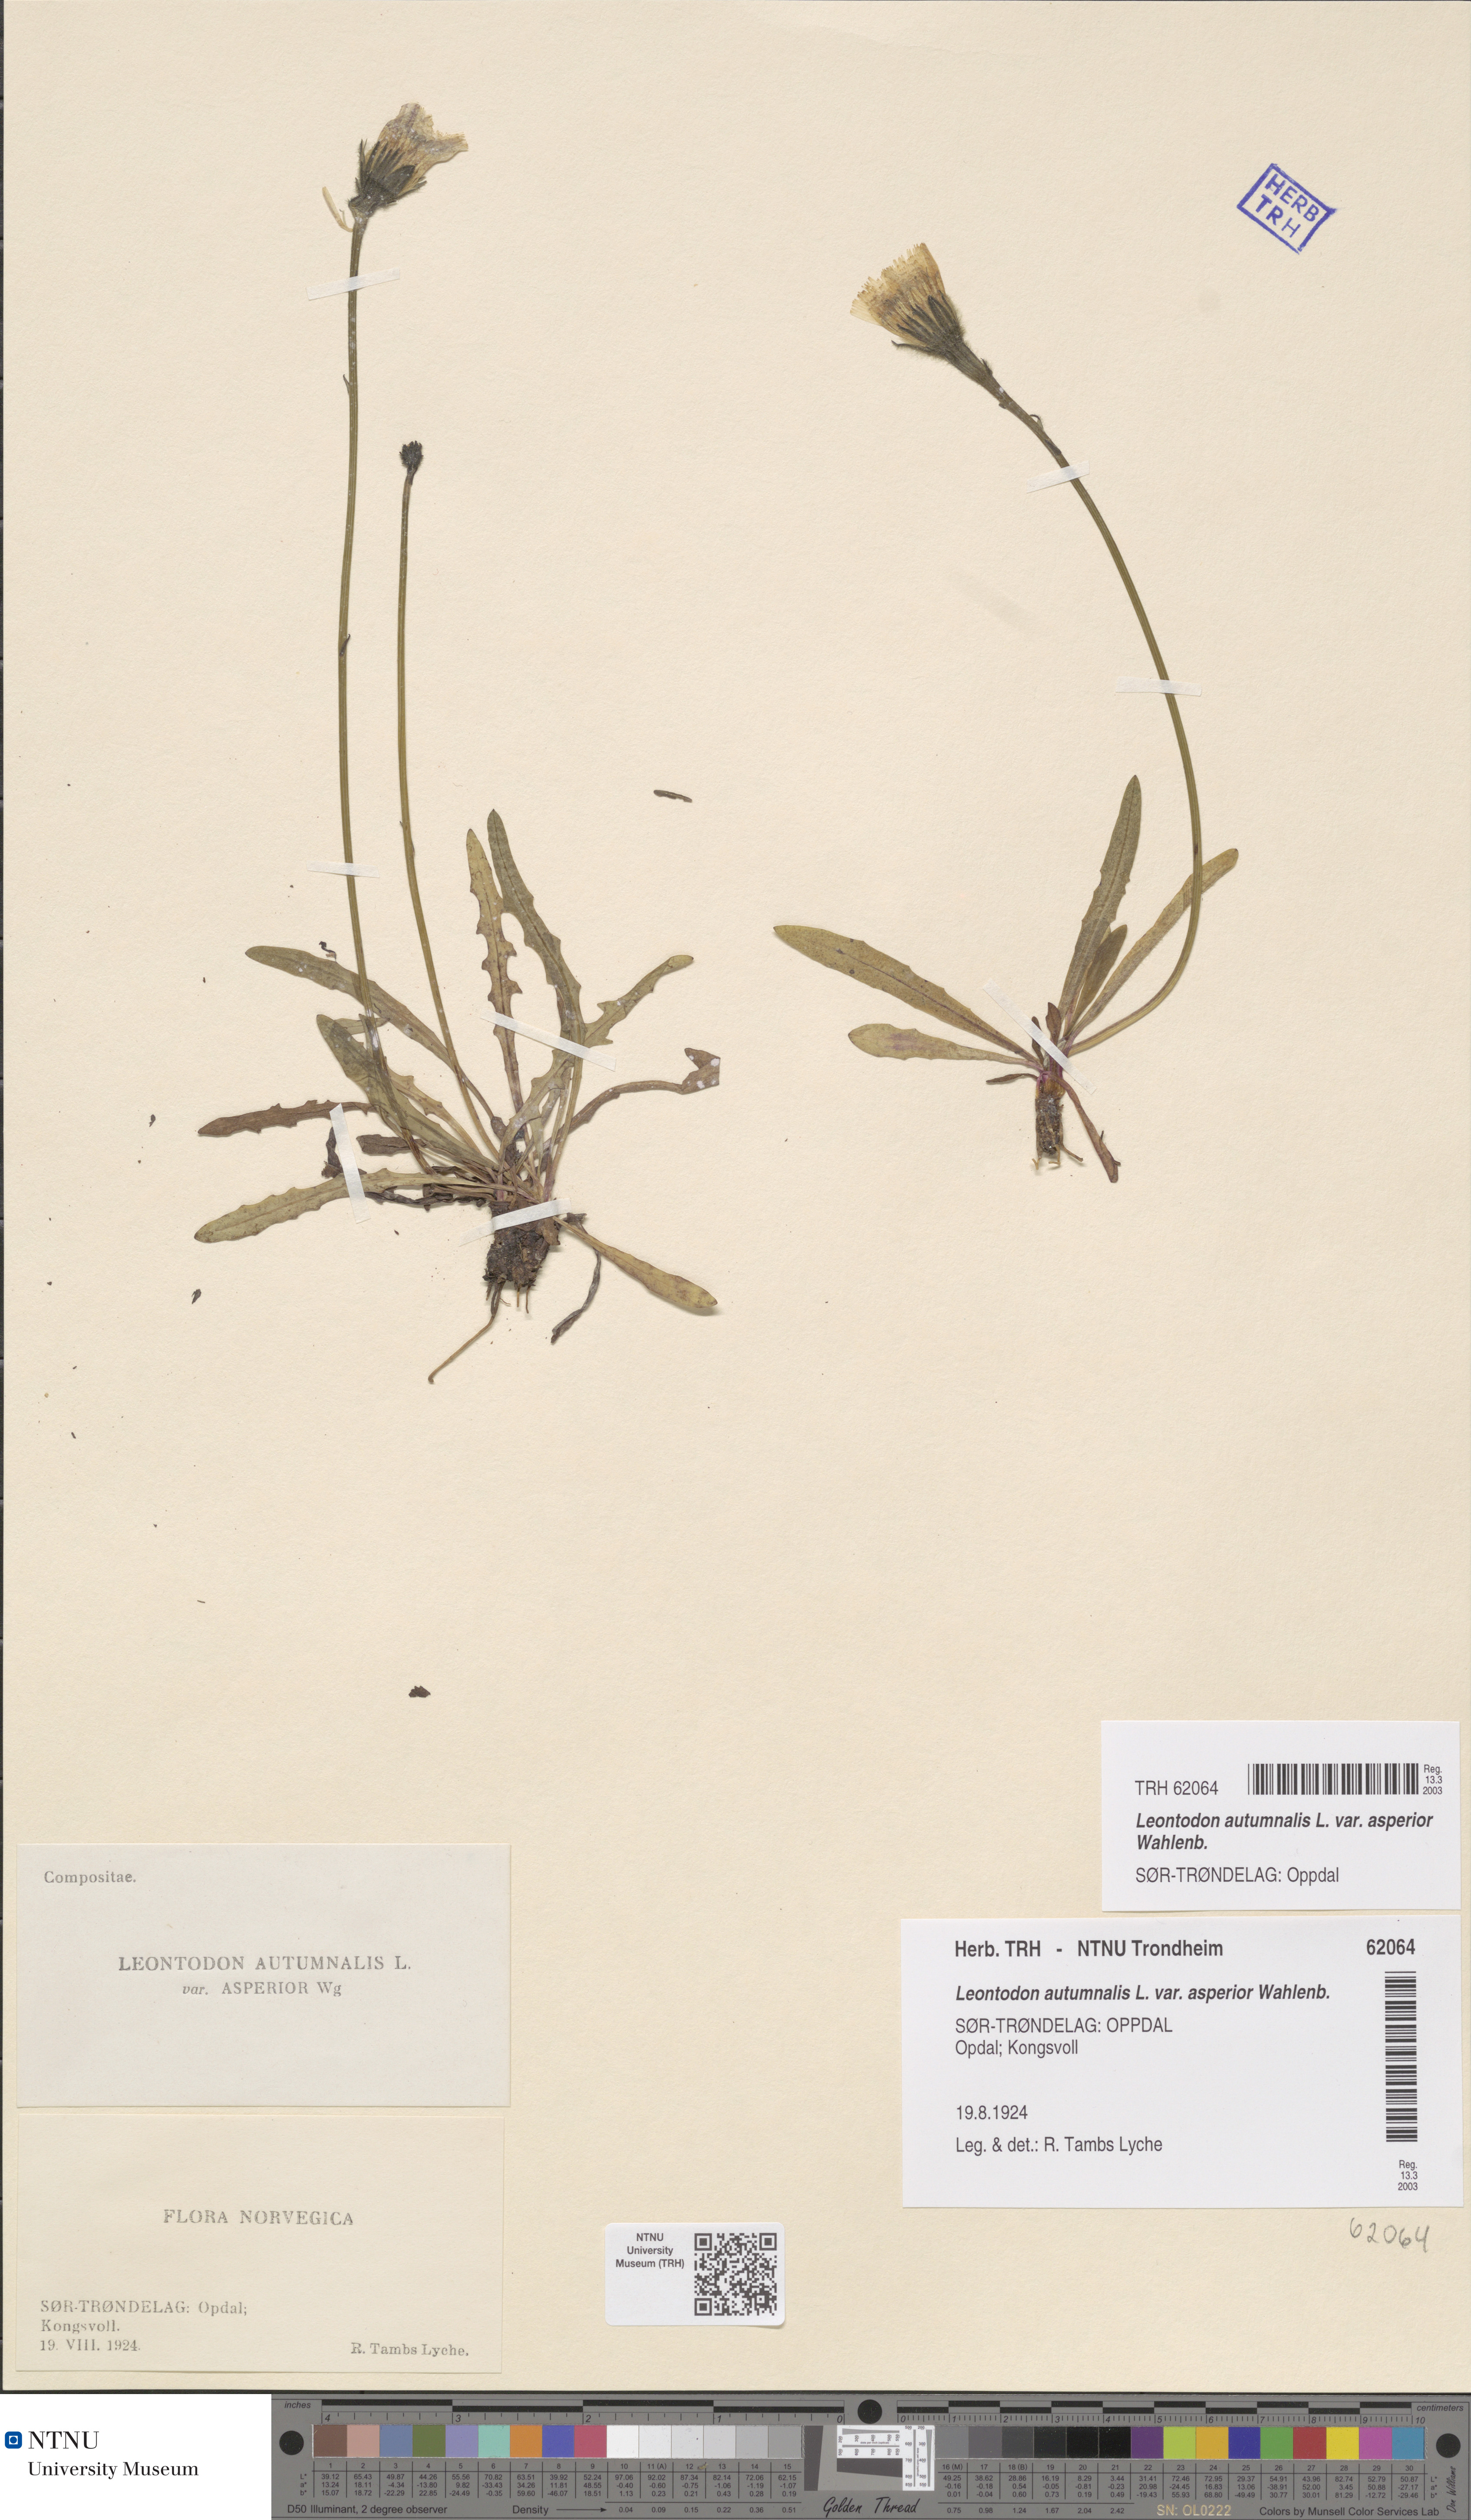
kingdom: Plantae
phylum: Tracheophyta
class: Magnoliopsida
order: Asterales
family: Asteraceae
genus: Scorzoneroides
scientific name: Scorzoneroides autumnalis
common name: Autumn hawkbit
